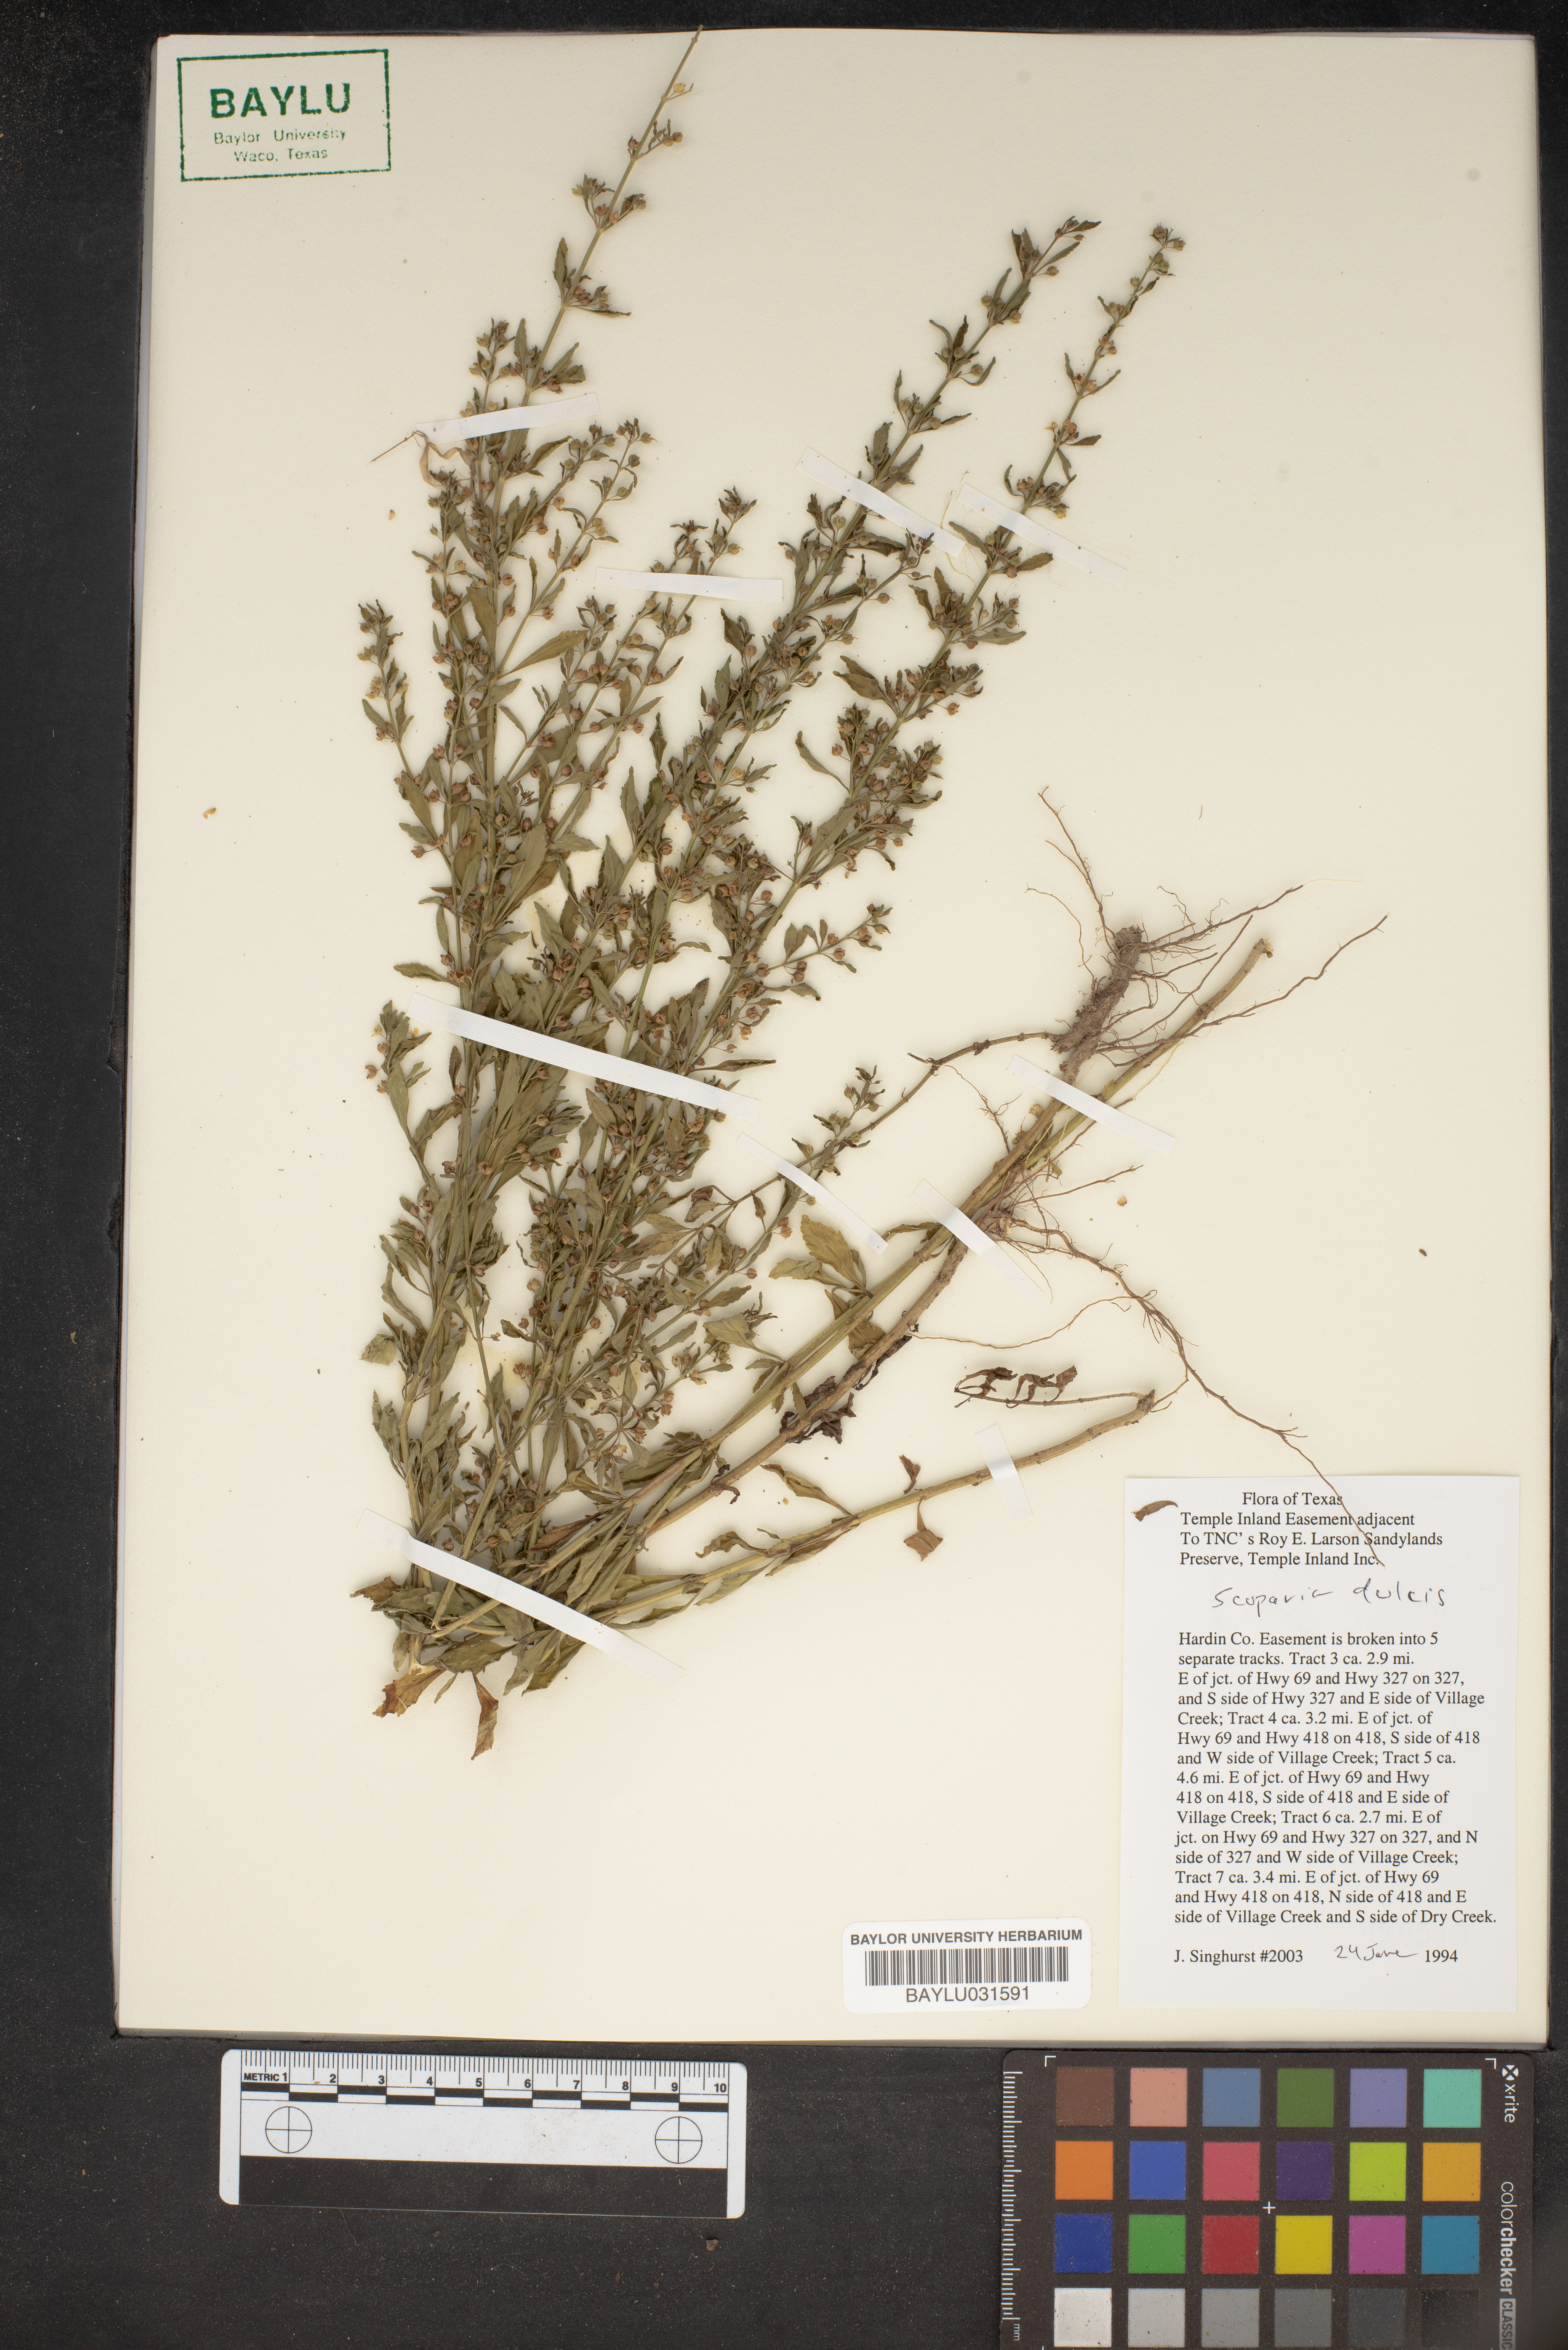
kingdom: Plantae
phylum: Tracheophyta
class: Magnoliopsida
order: Lamiales
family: Plantaginaceae
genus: Scoparia
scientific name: Scoparia dulcis
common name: Scoparia-weed
